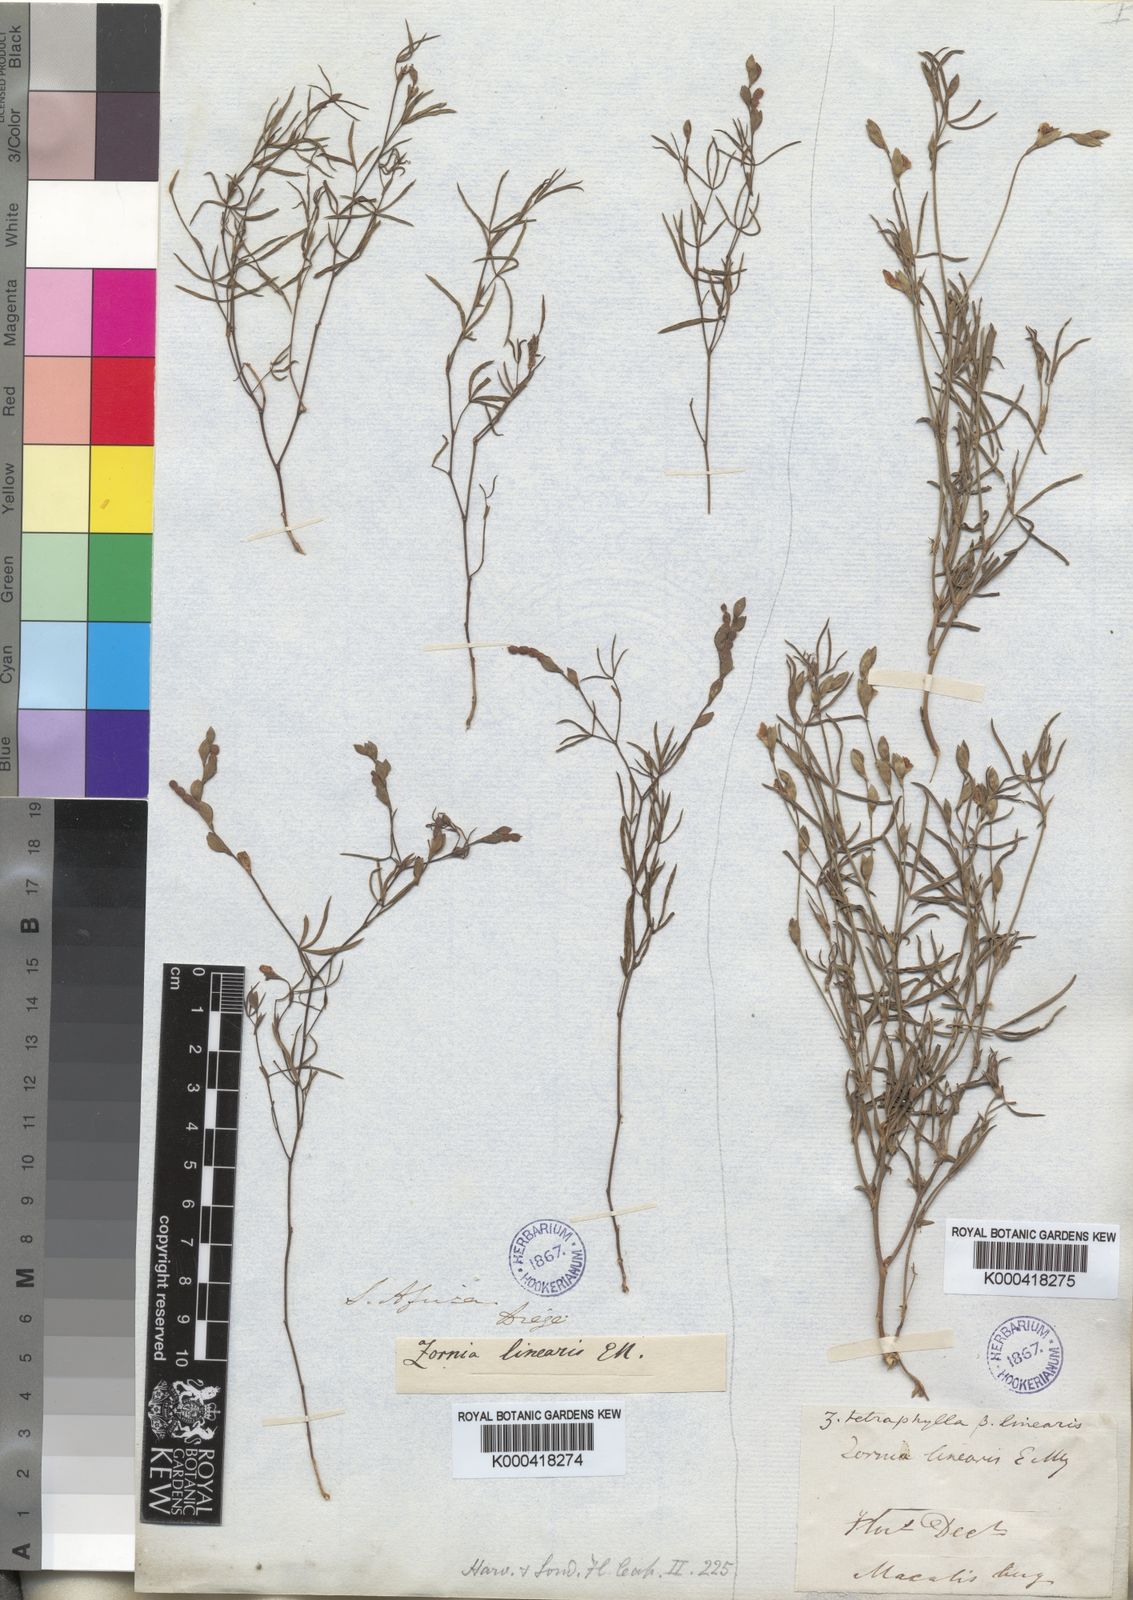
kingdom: Plantae
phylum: Tracheophyta
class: Magnoliopsida
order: Fabales
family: Fabaceae
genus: Zornia
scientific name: Zornia bracteata
